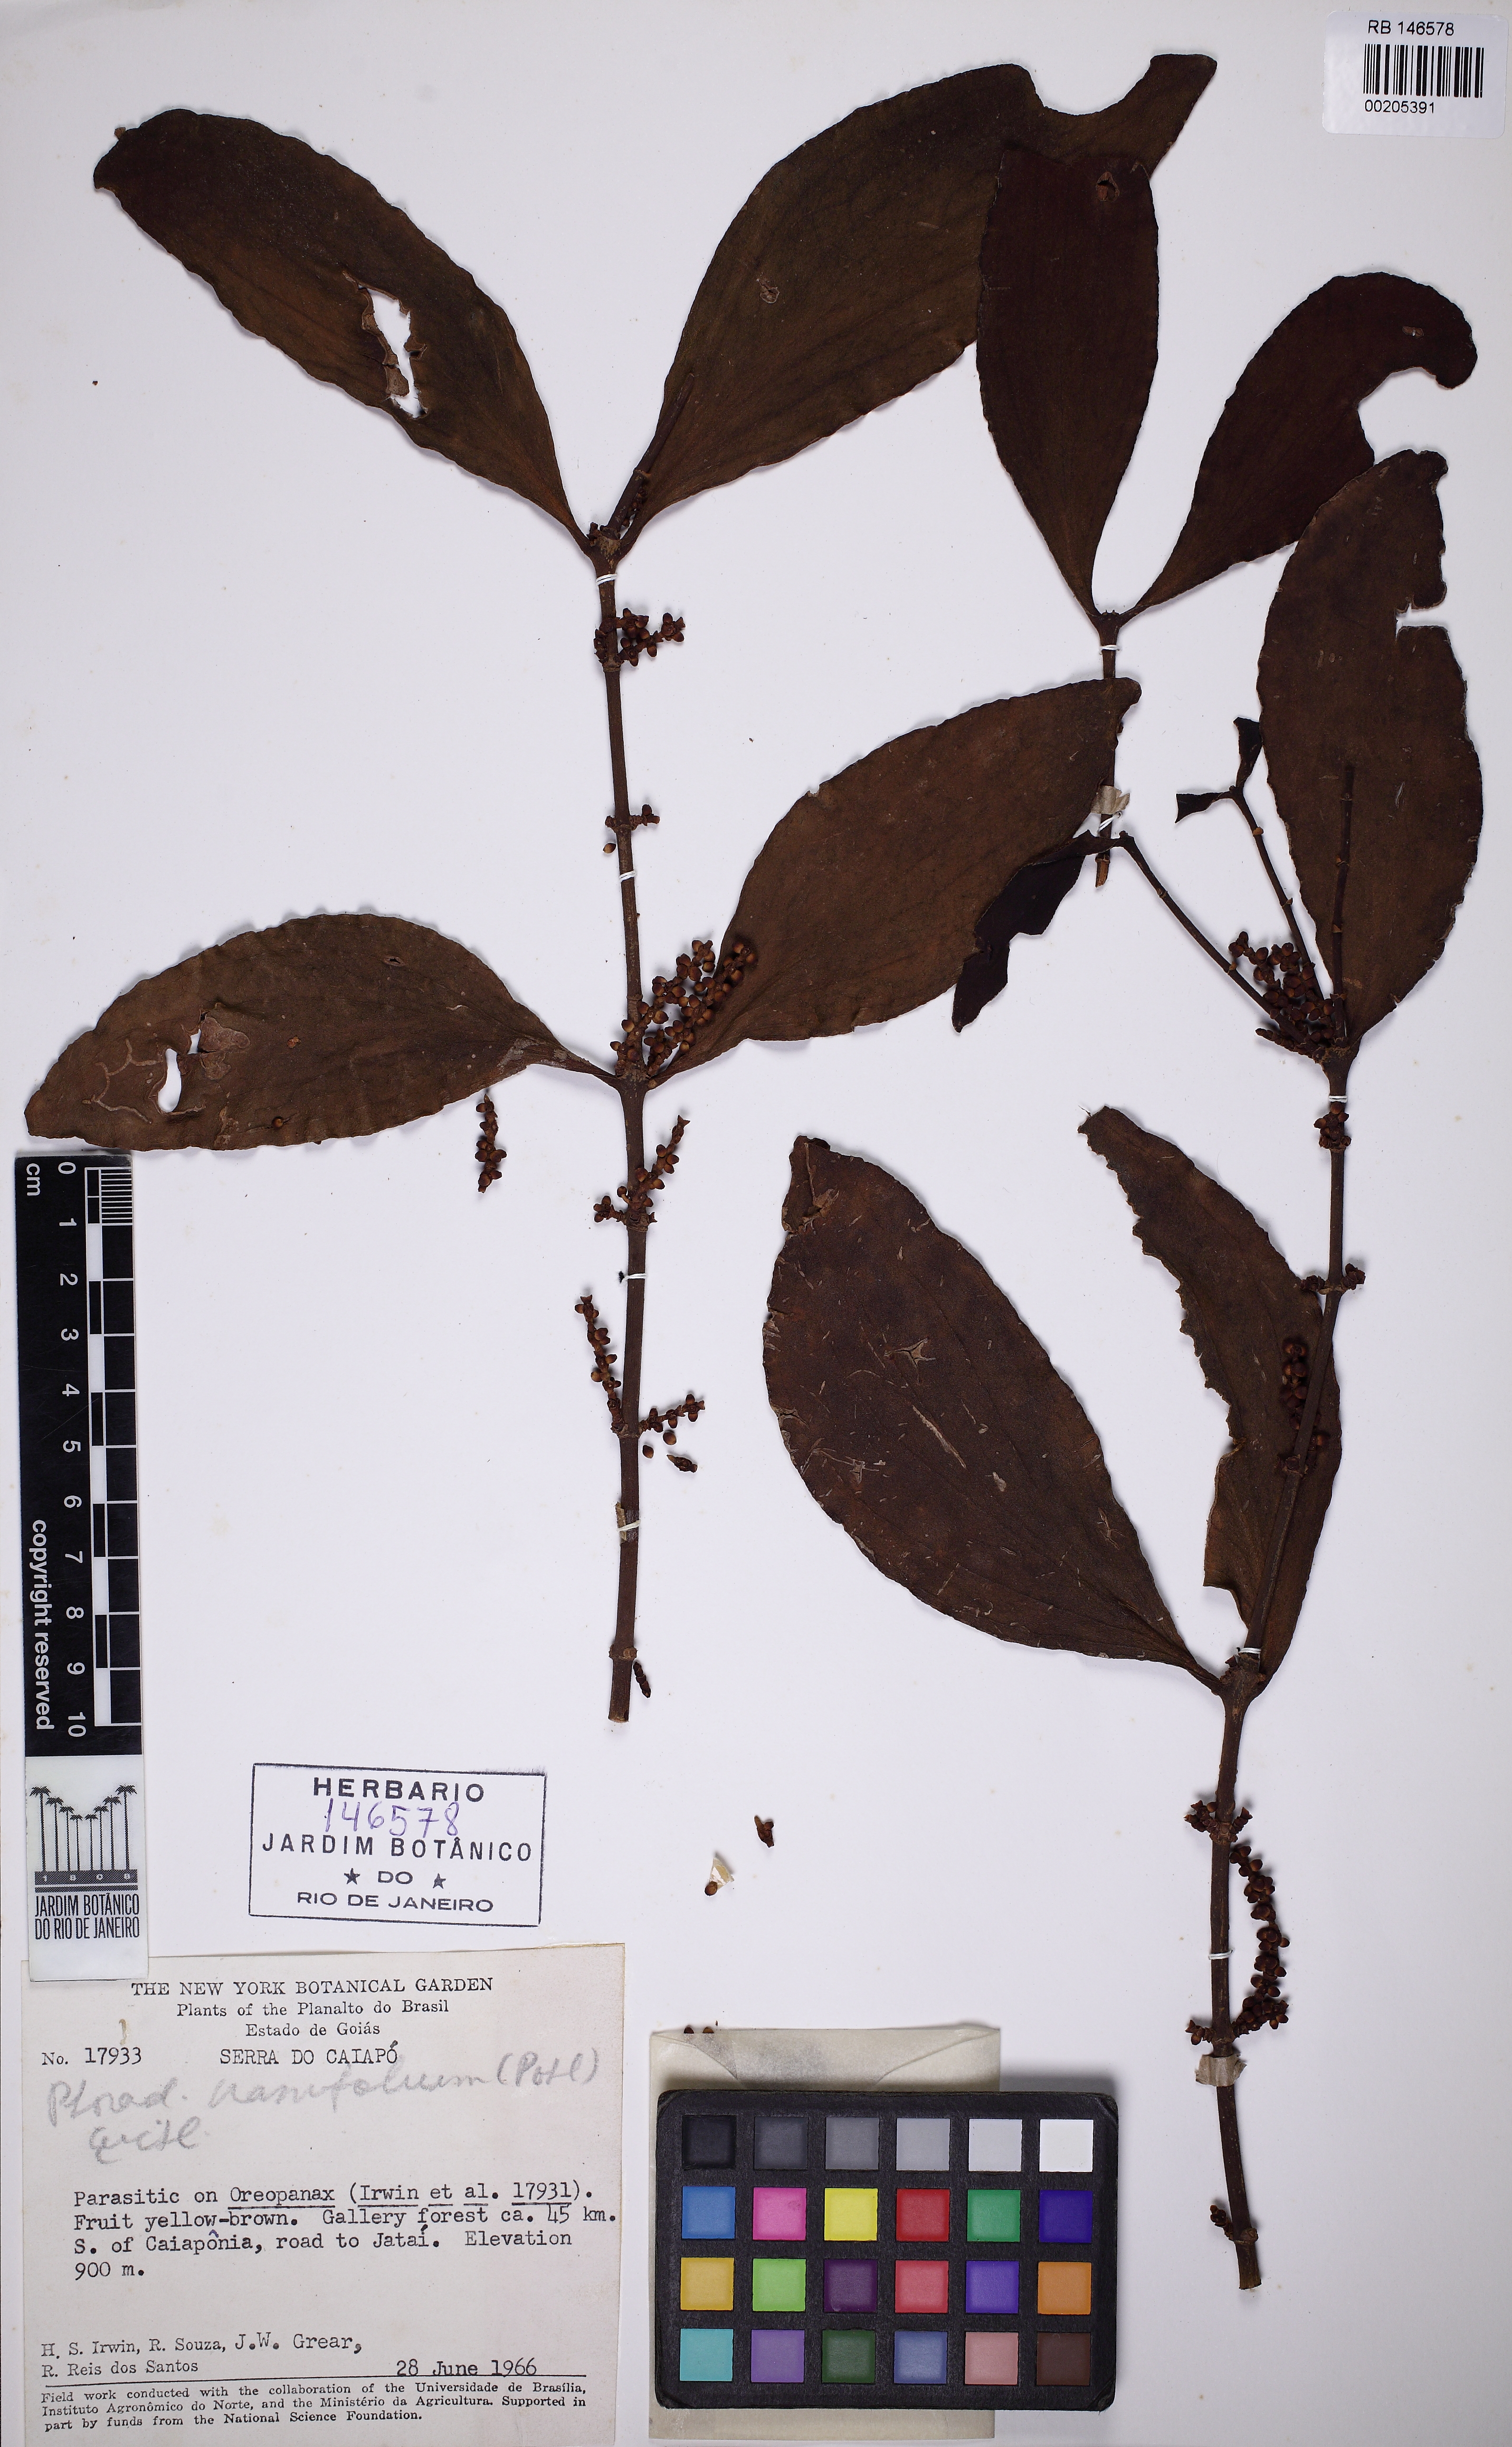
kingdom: Plantae
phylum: Tracheophyta
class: Magnoliopsida
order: Santalales
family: Viscaceae
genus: Phoradendron
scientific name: Phoradendron crassifolium
